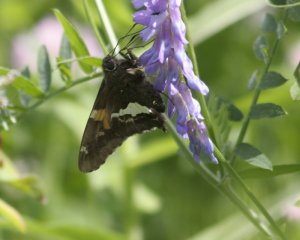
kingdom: Animalia
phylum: Arthropoda
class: Insecta
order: Lepidoptera
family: Hesperiidae
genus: Epargyreus
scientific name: Epargyreus clarus
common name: Silver-spotted Skipper
